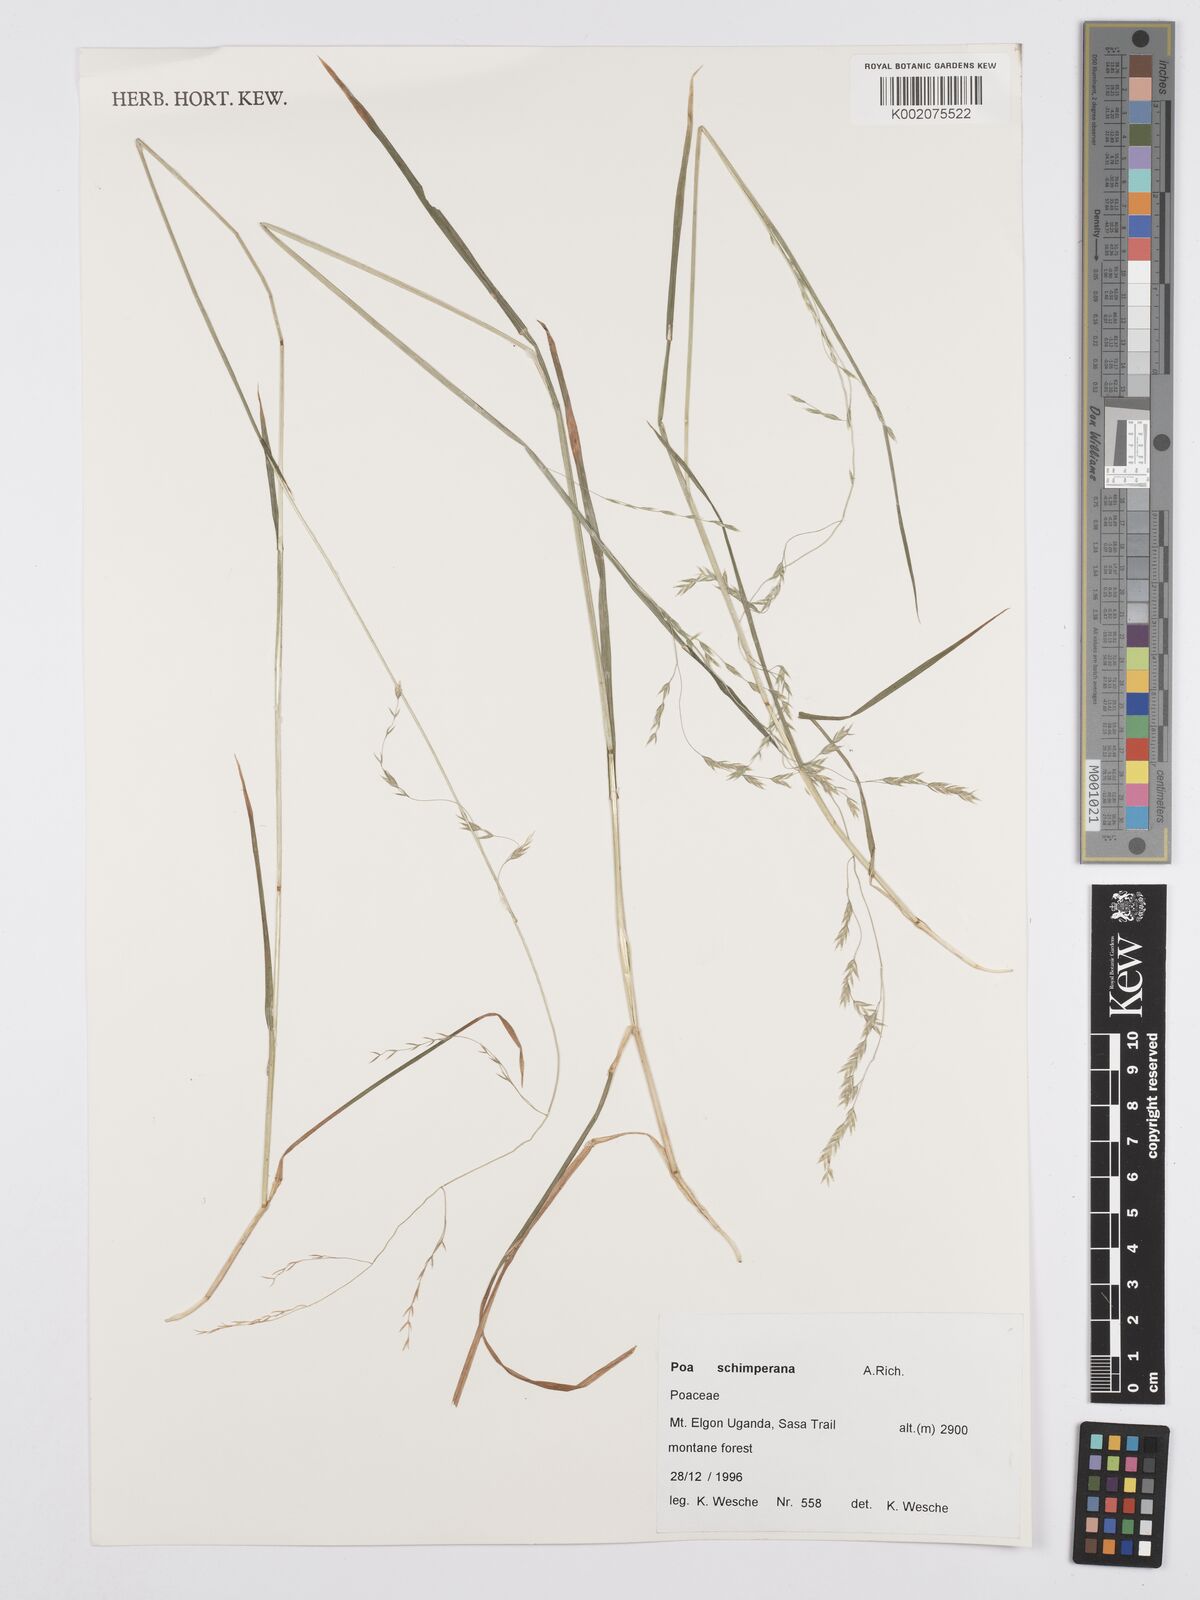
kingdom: Plantae
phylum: Tracheophyta
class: Liliopsida
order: Poales
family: Poaceae
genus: Poa
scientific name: Poa schimperiana
